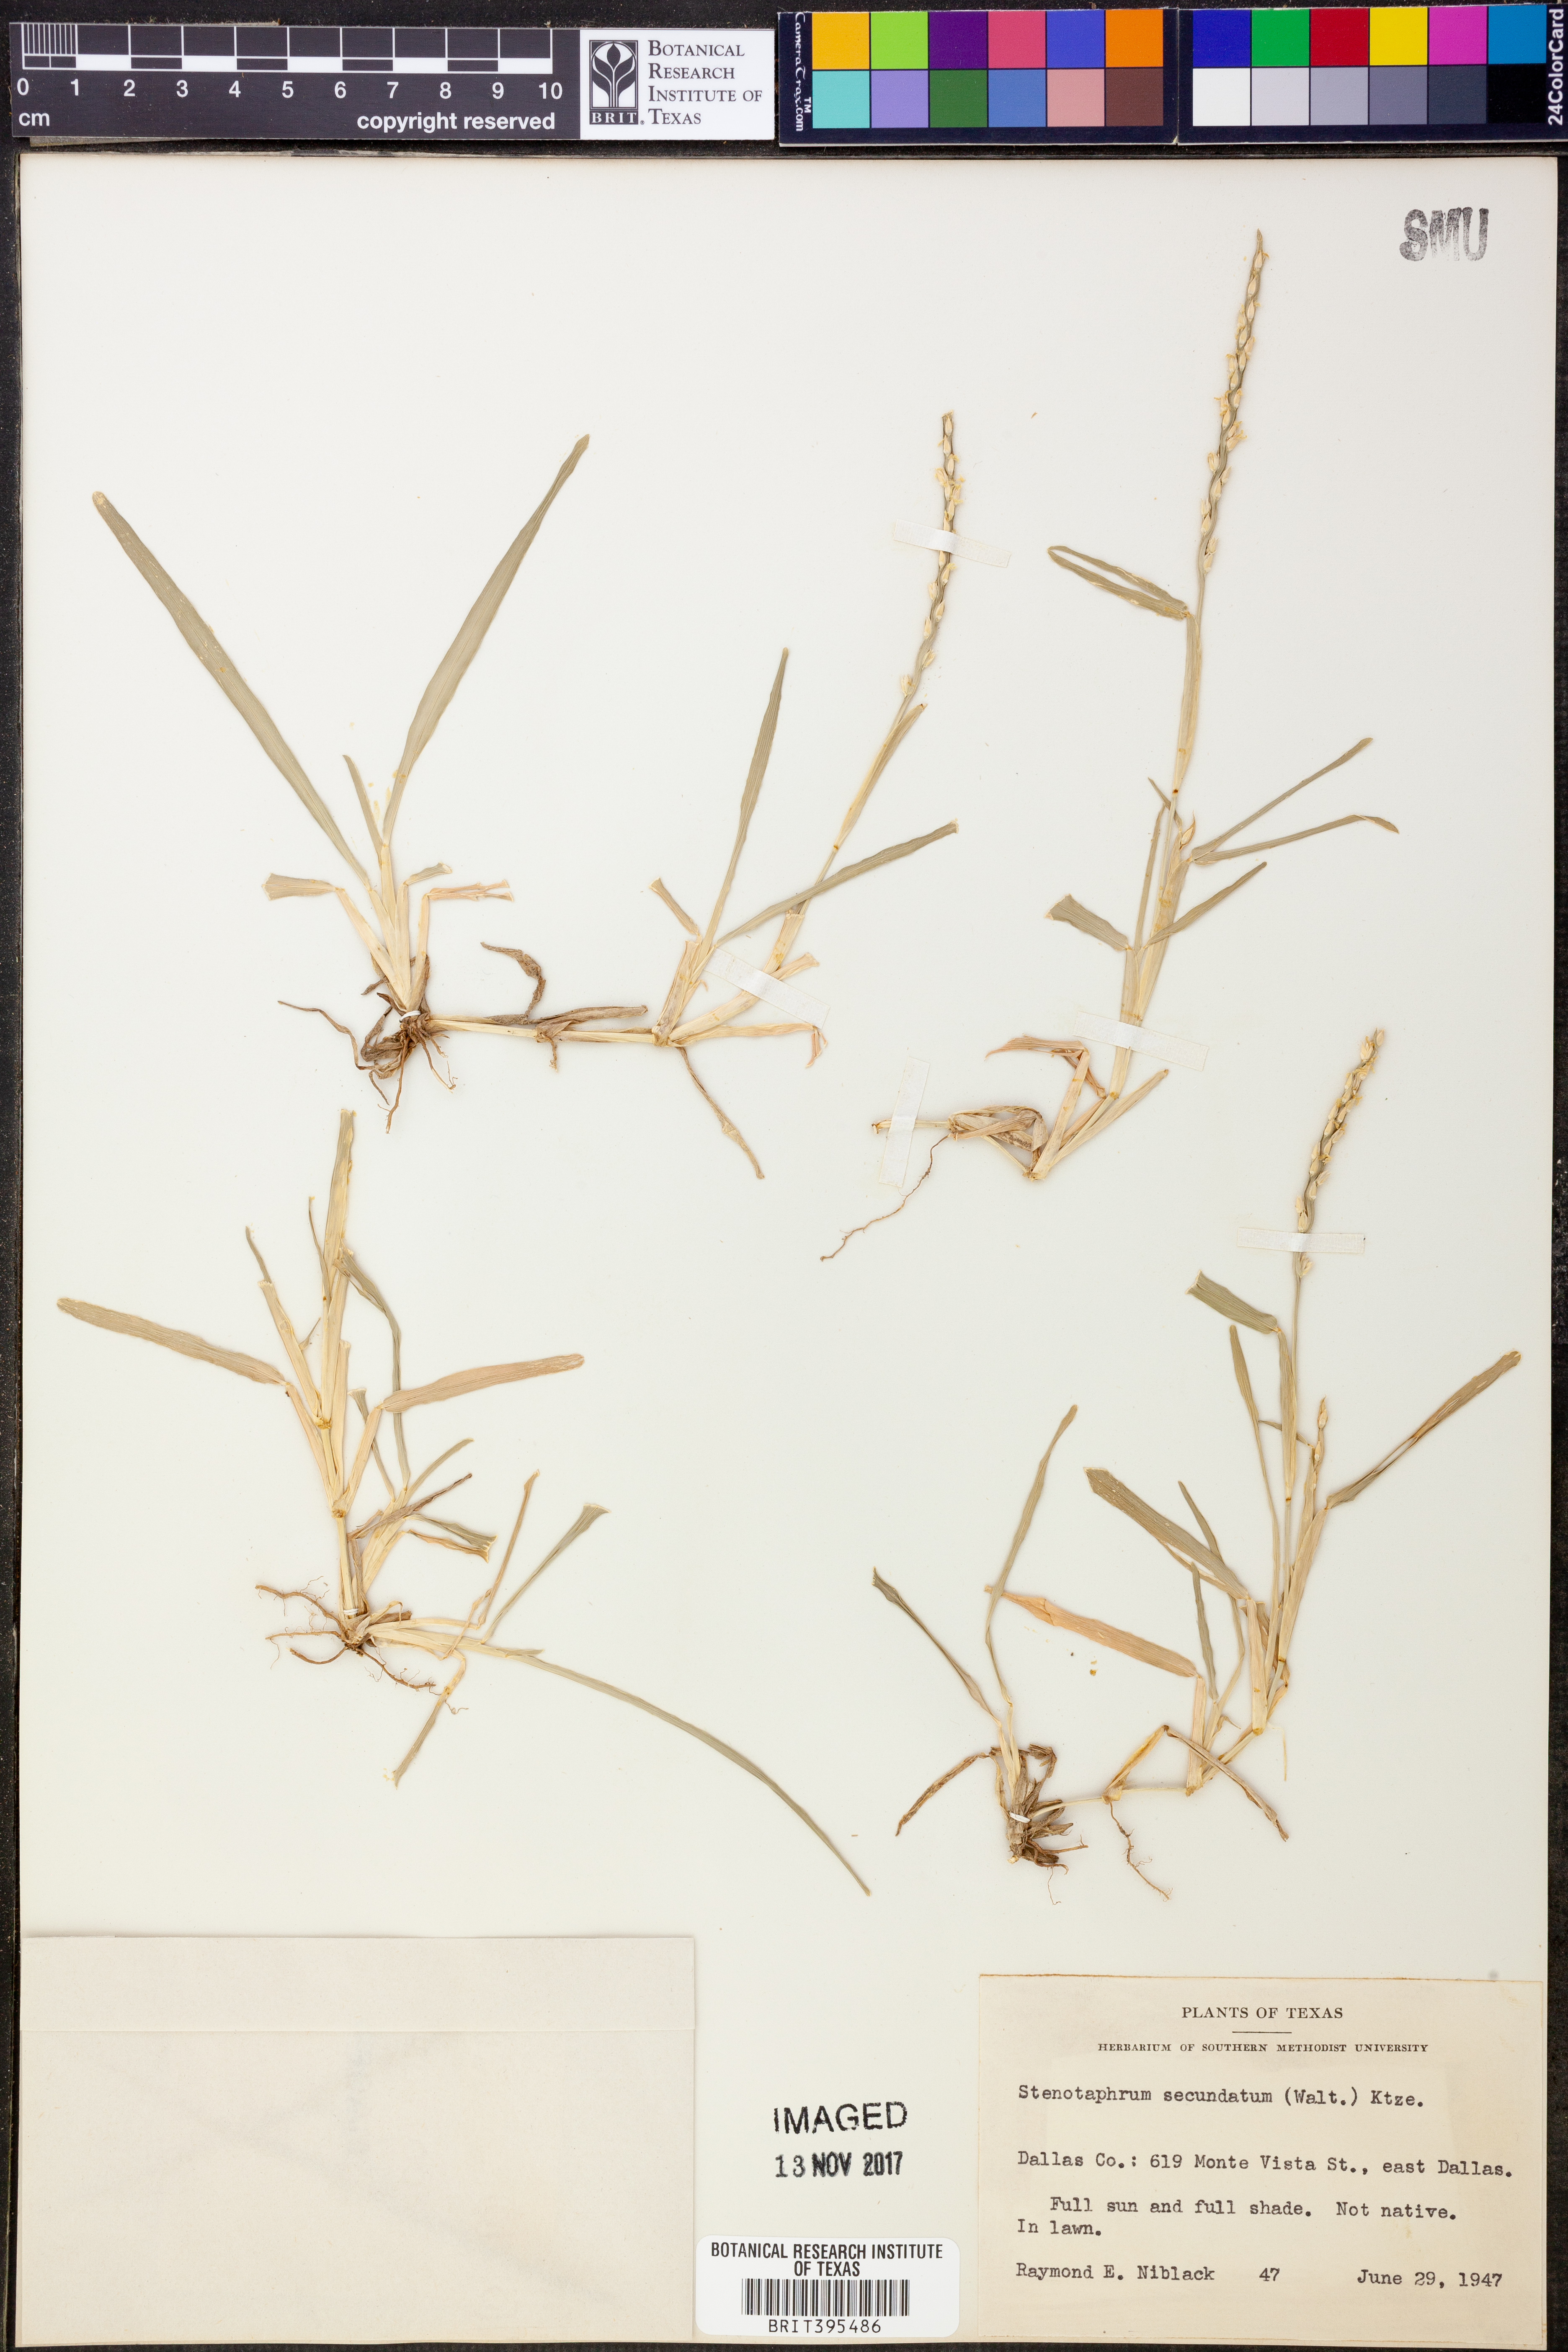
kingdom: Plantae
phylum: Tracheophyta
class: Liliopsida
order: Poales
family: Poaceae
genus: Stenotaphrum
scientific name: Stenotaphrum secundatum
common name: St. augustine grass
